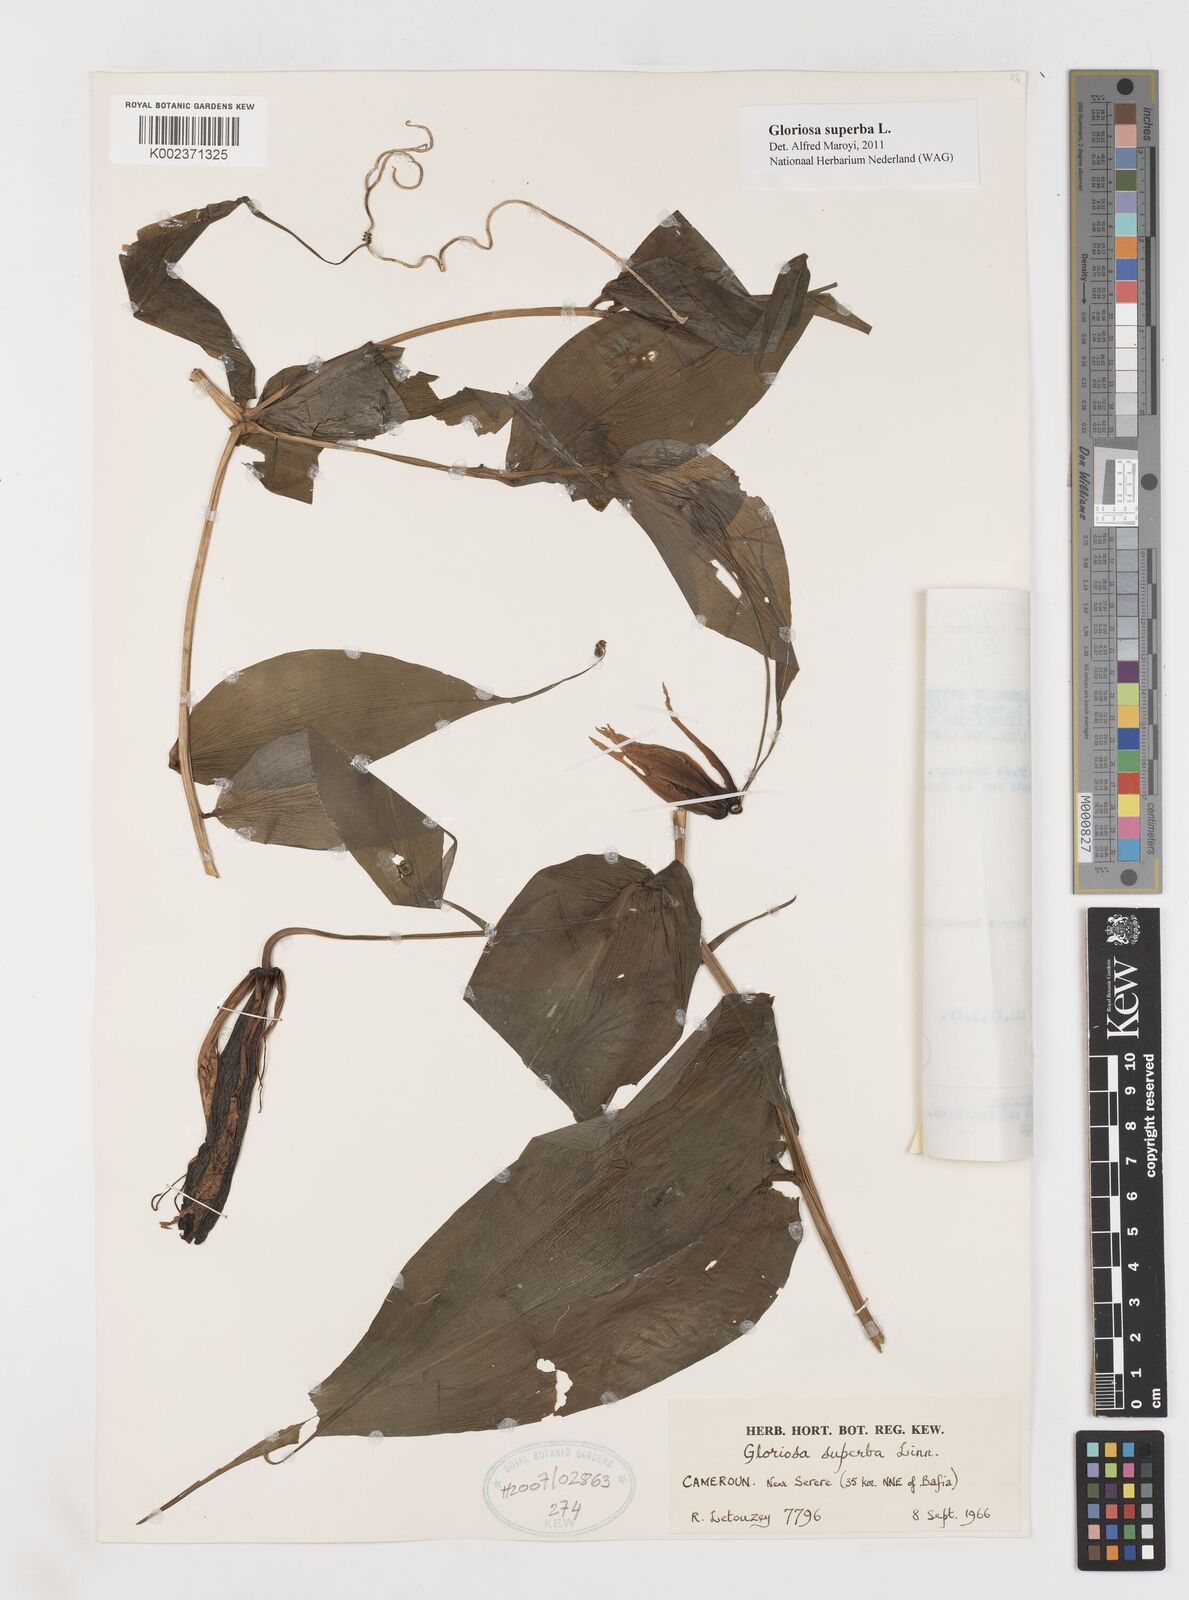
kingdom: Plantae
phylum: Tracheophyta
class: Liliopsida
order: Liliales
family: Colchicaceae
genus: Gloriosa
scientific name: Gloriosa superba
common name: Flame lily
